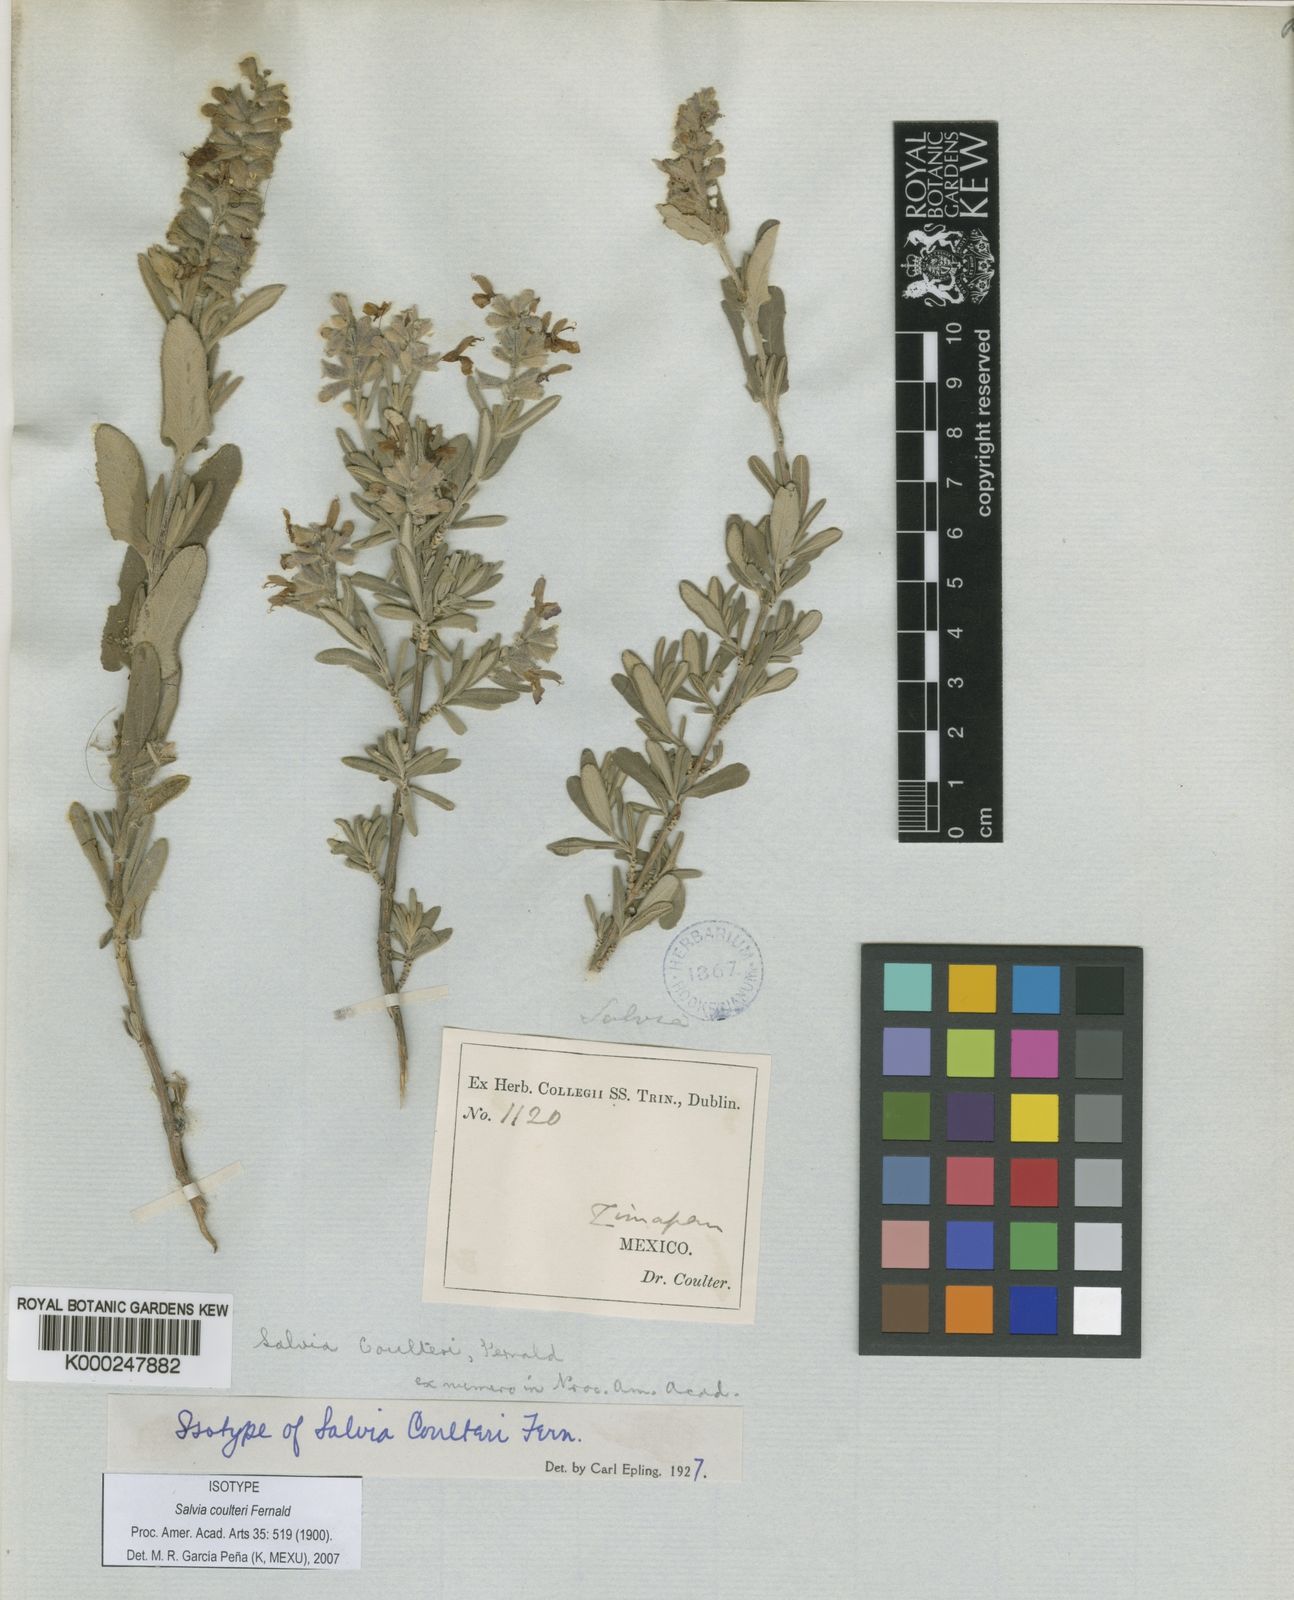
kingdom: Plantae
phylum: Tracheophyta
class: Magnoliopsida
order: Lamiales
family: Lamiaceae
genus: Salvia
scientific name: Salvia coulteri
